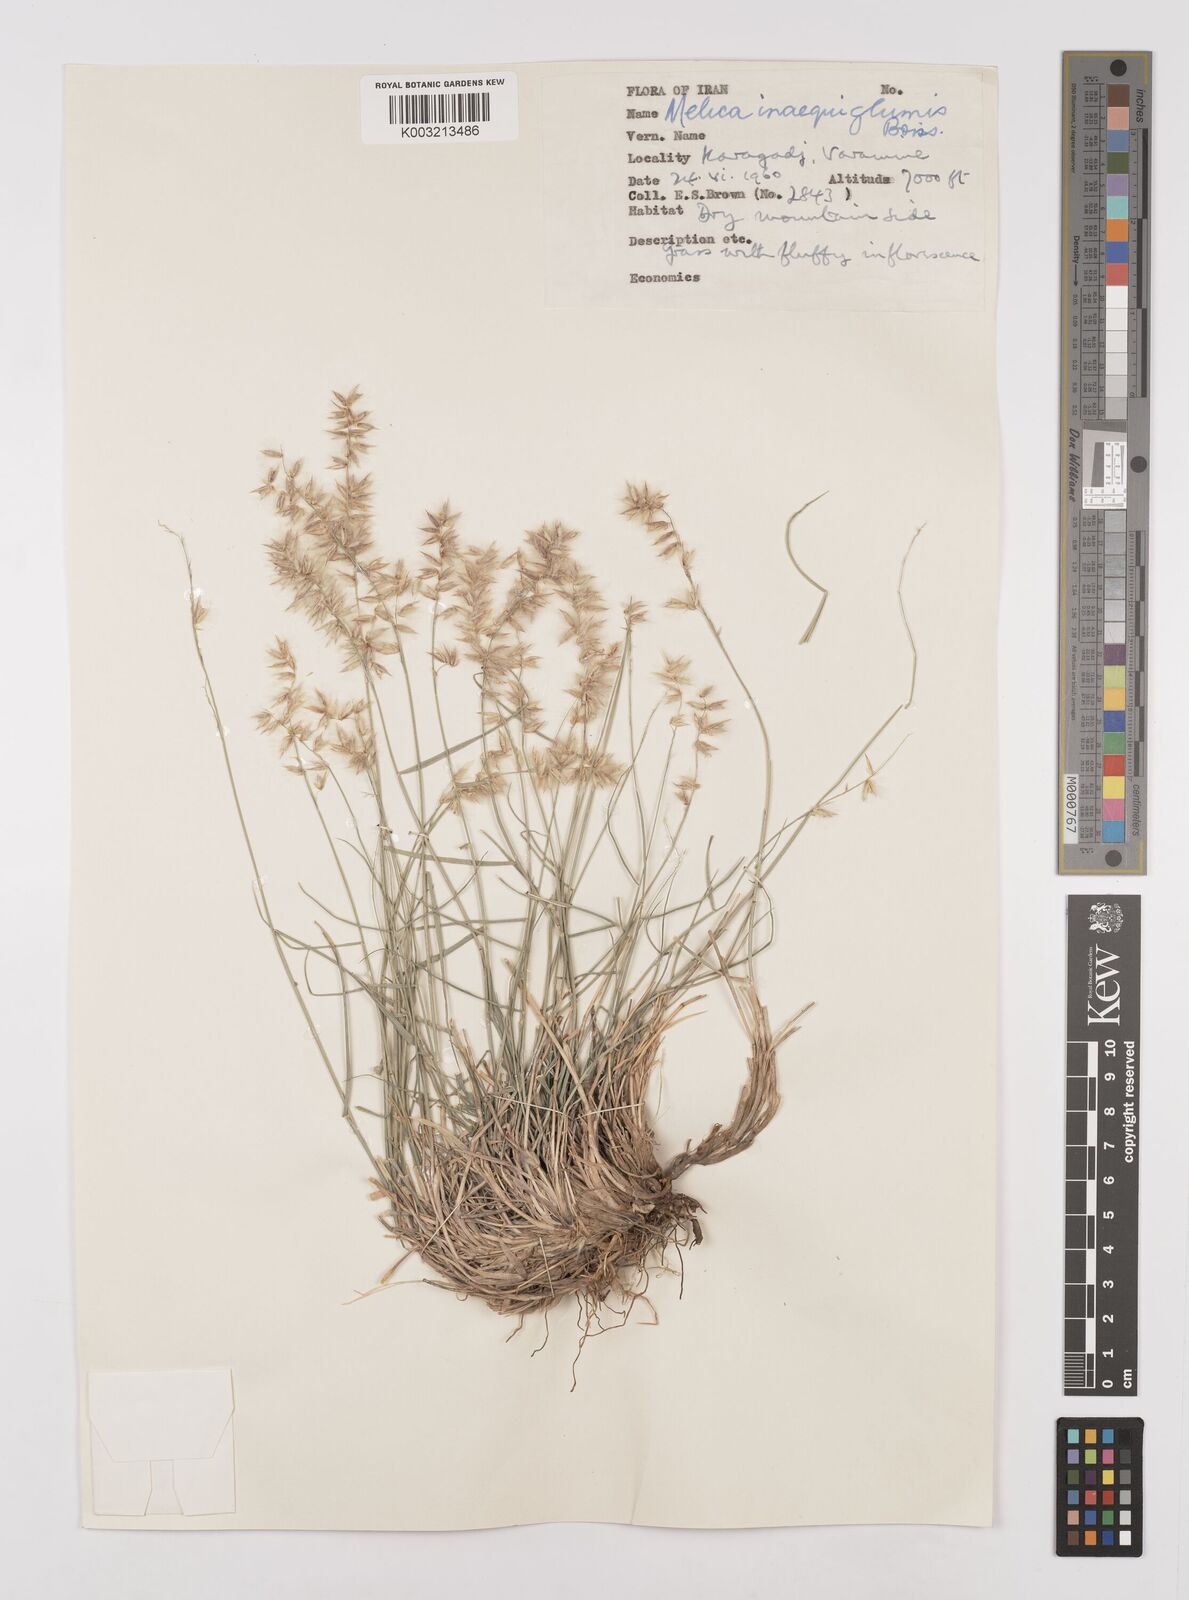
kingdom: Plantae
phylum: Tracheophyta
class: Liliopsida
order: Poales
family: Poaceae
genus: Melica
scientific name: Melica persica
